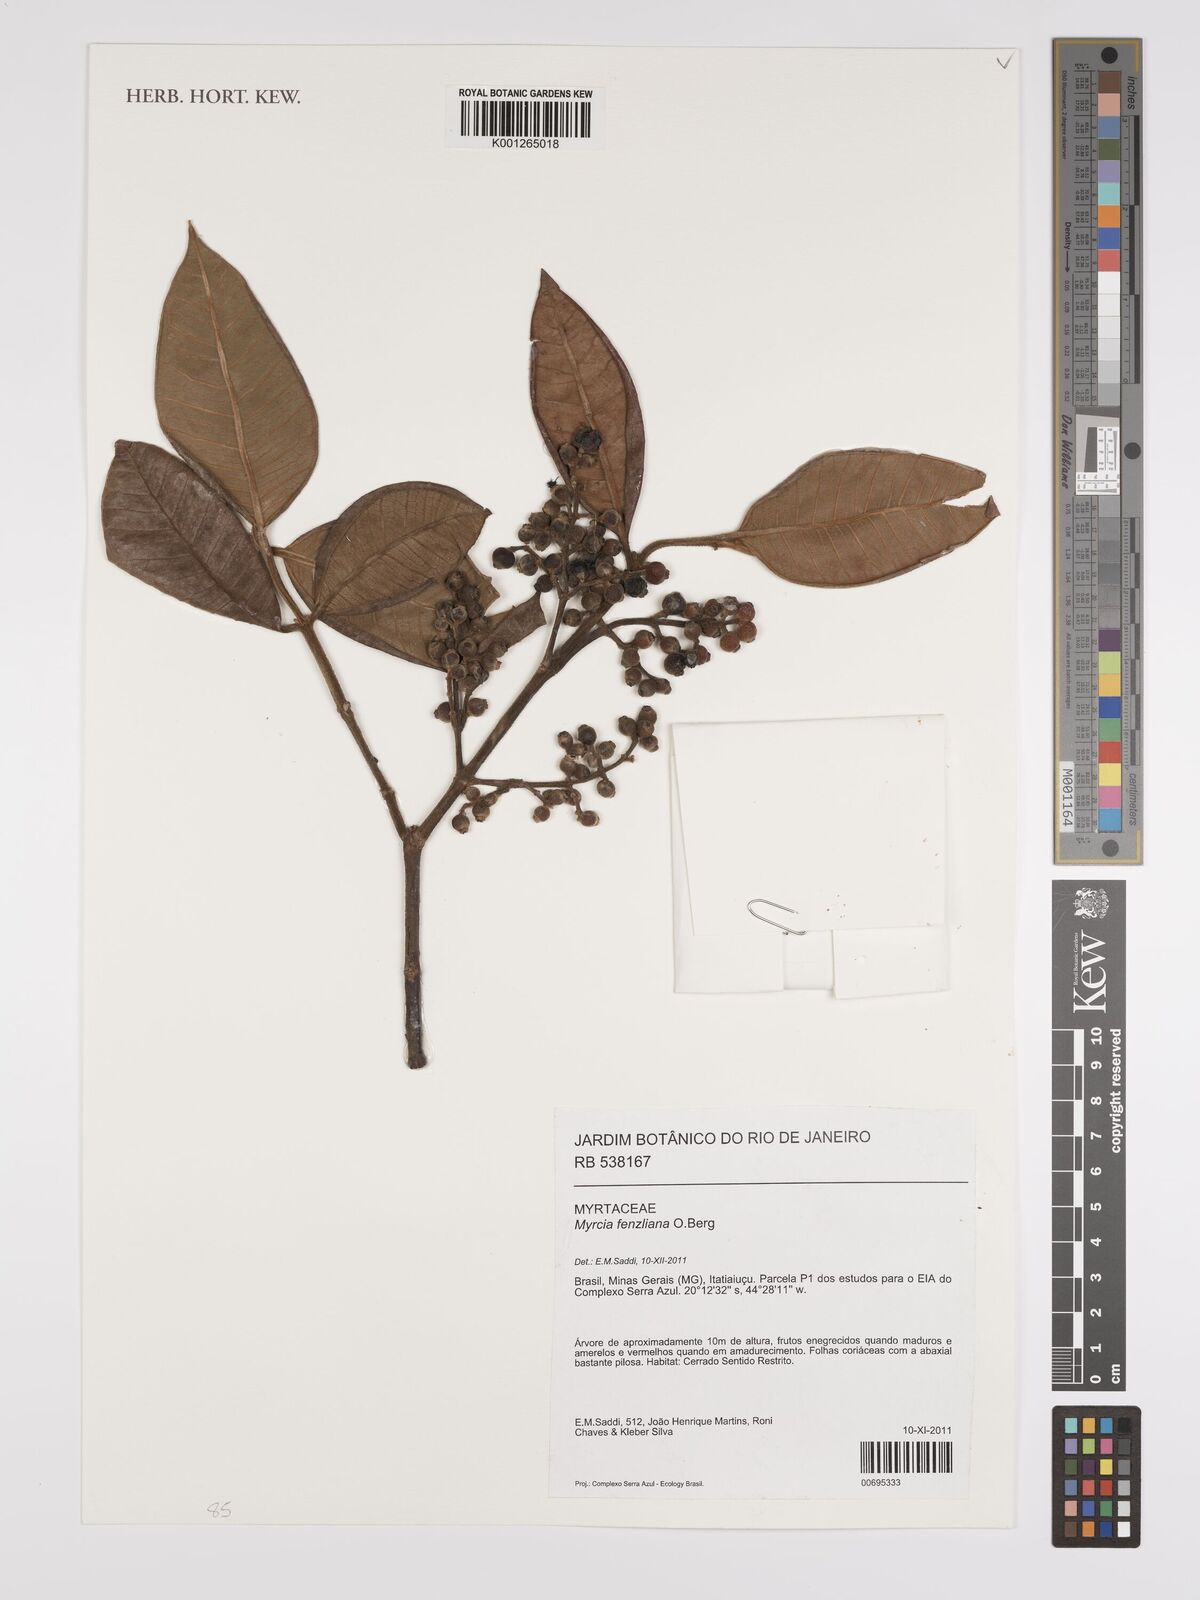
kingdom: Plantae
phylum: Tracheophyta
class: Magnoliopsida
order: Myrtales
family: Myrtaceae
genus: Myrcia
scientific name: Myrcia fenzliana
